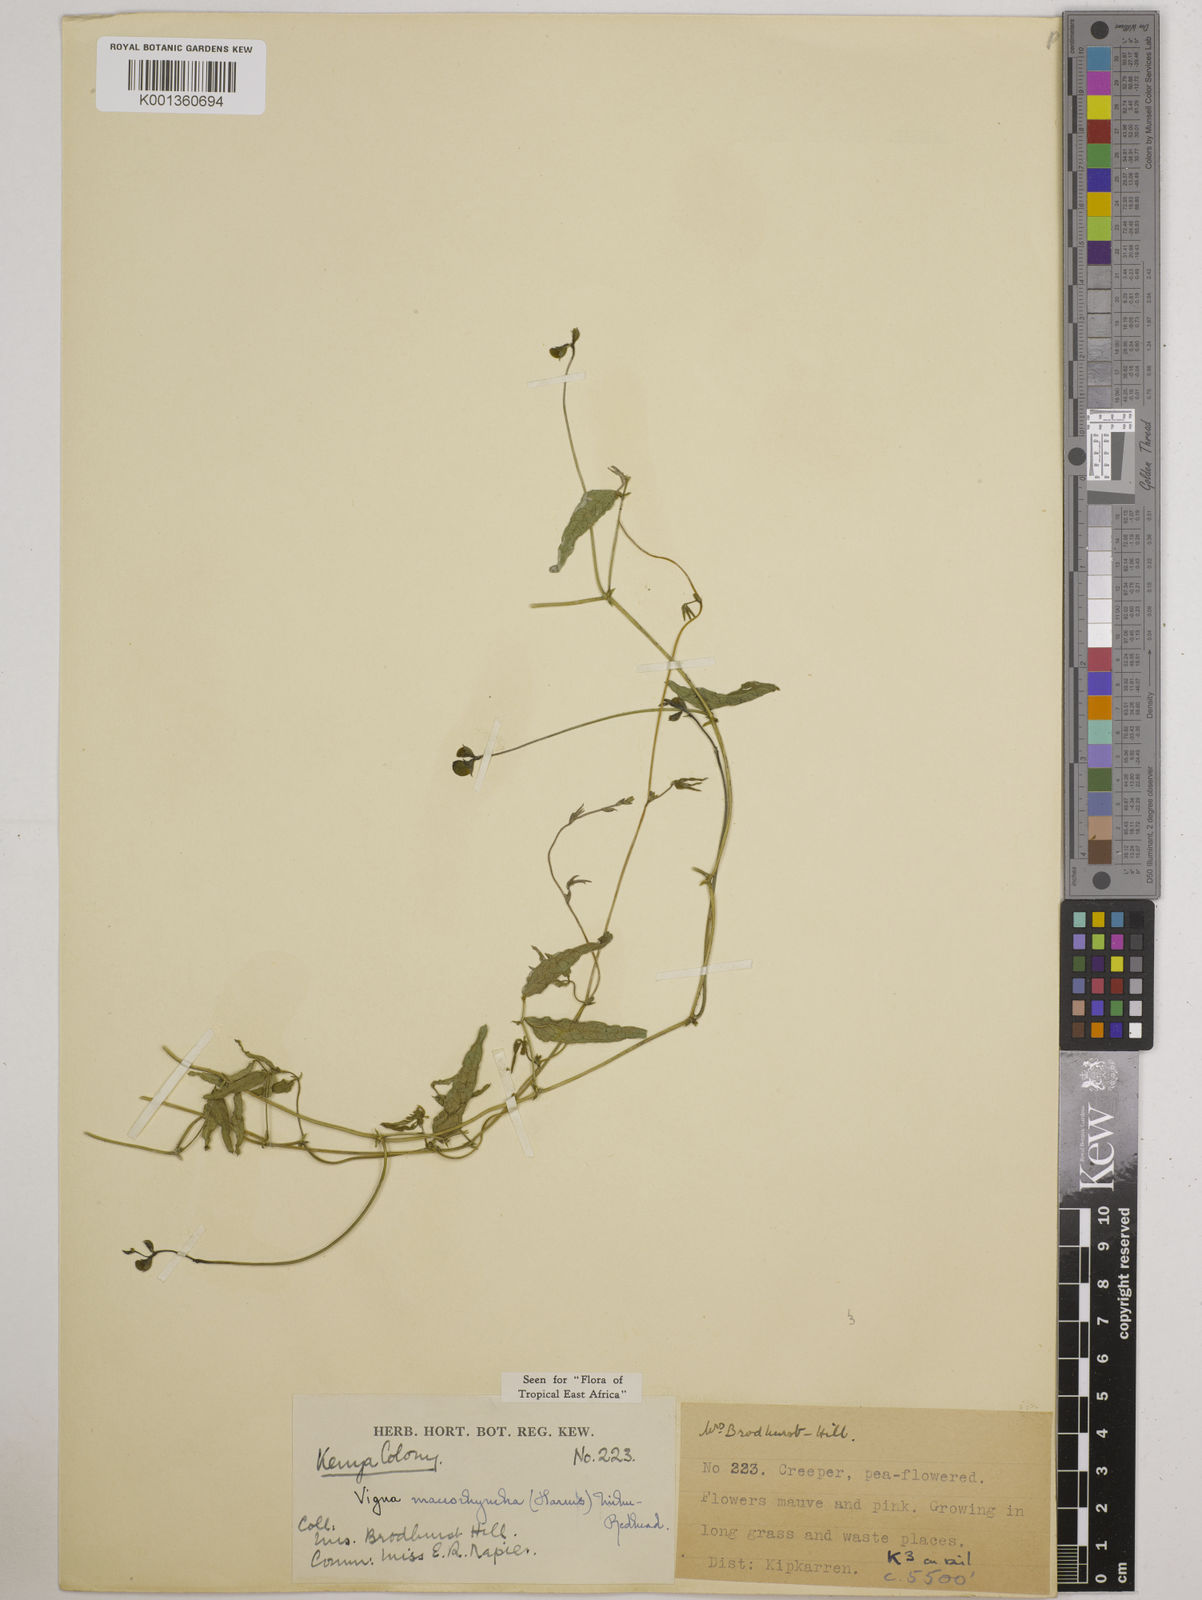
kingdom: Plantae
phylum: Tracheophyta
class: Magnoliopsida
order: Fabales
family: Fabaceae
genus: Wajira
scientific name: Wajira grahamiana
